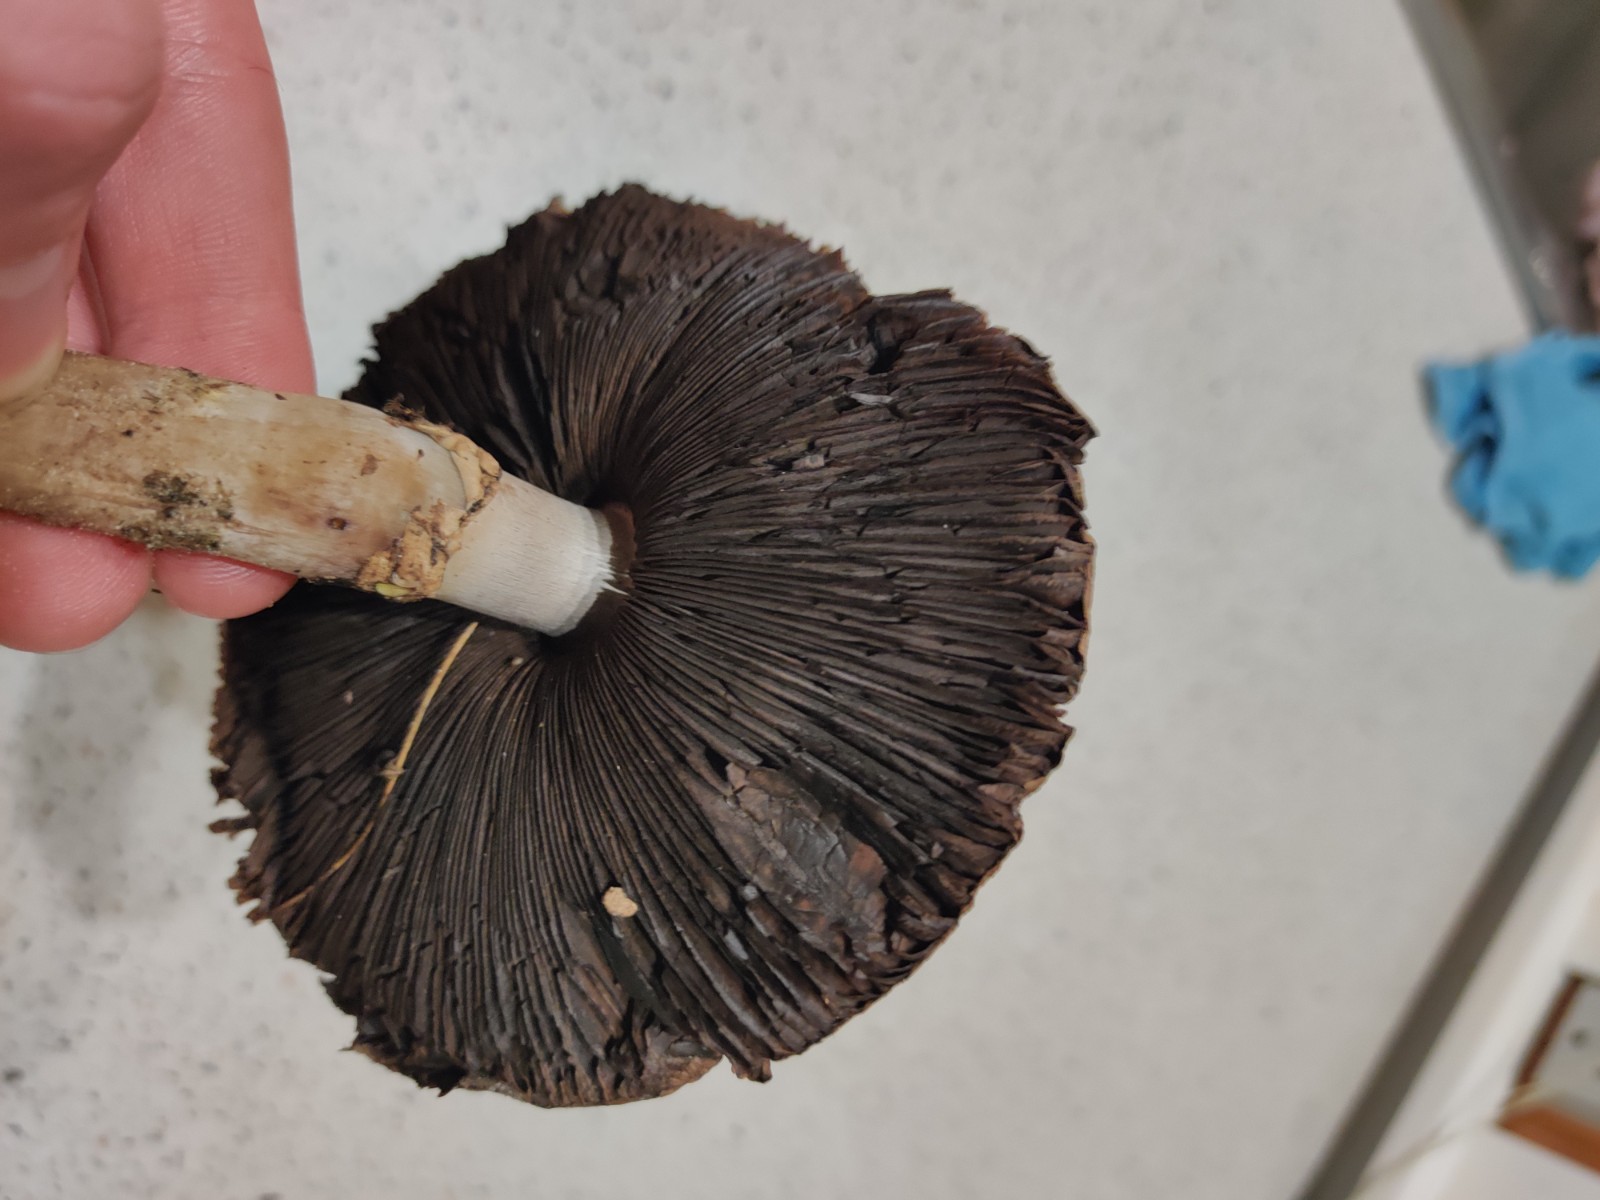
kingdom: Fungi
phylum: Basidiomycota
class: Agaricomycetes
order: Agaricales
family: Agaricaceae
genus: Agaricus
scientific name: Agaricus
